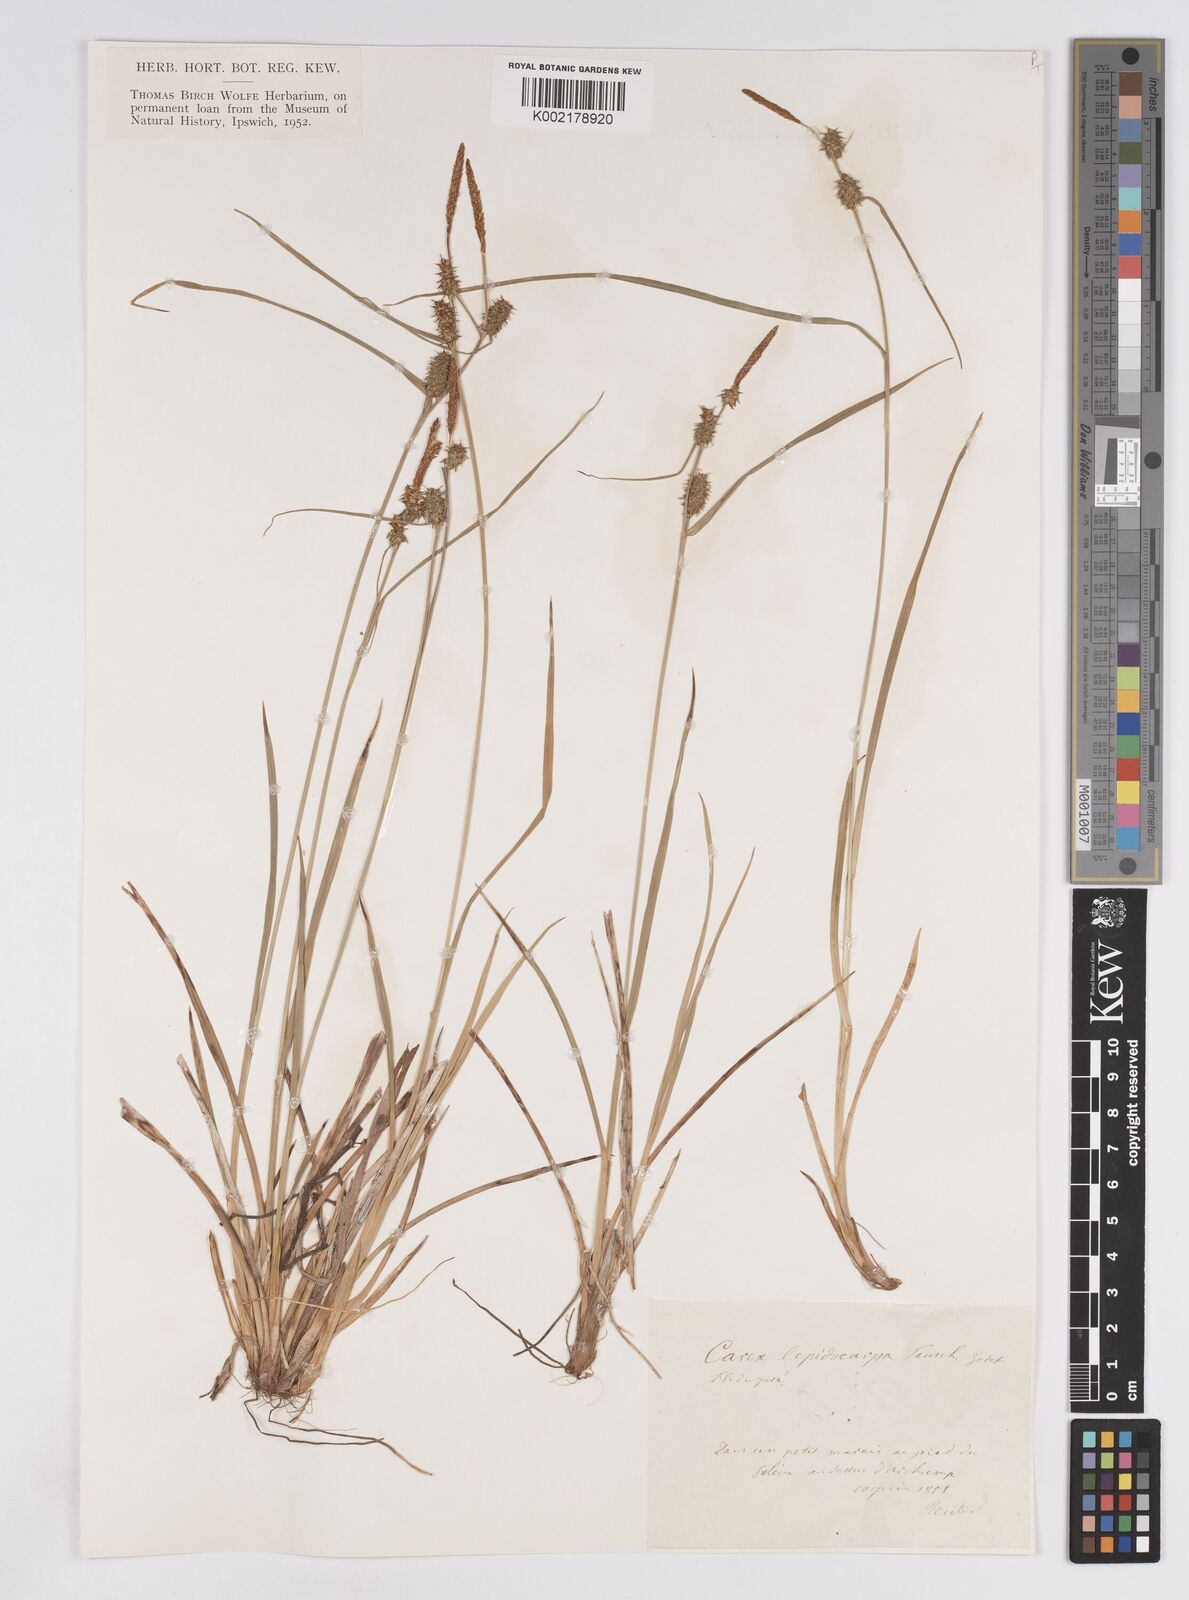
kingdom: Plantae
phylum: Tracheophyta
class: Liliopsida
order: Poales
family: Cyperaceae
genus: Carex
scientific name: Carex lepidocarpa
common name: Long-stalked yellow-sedge
